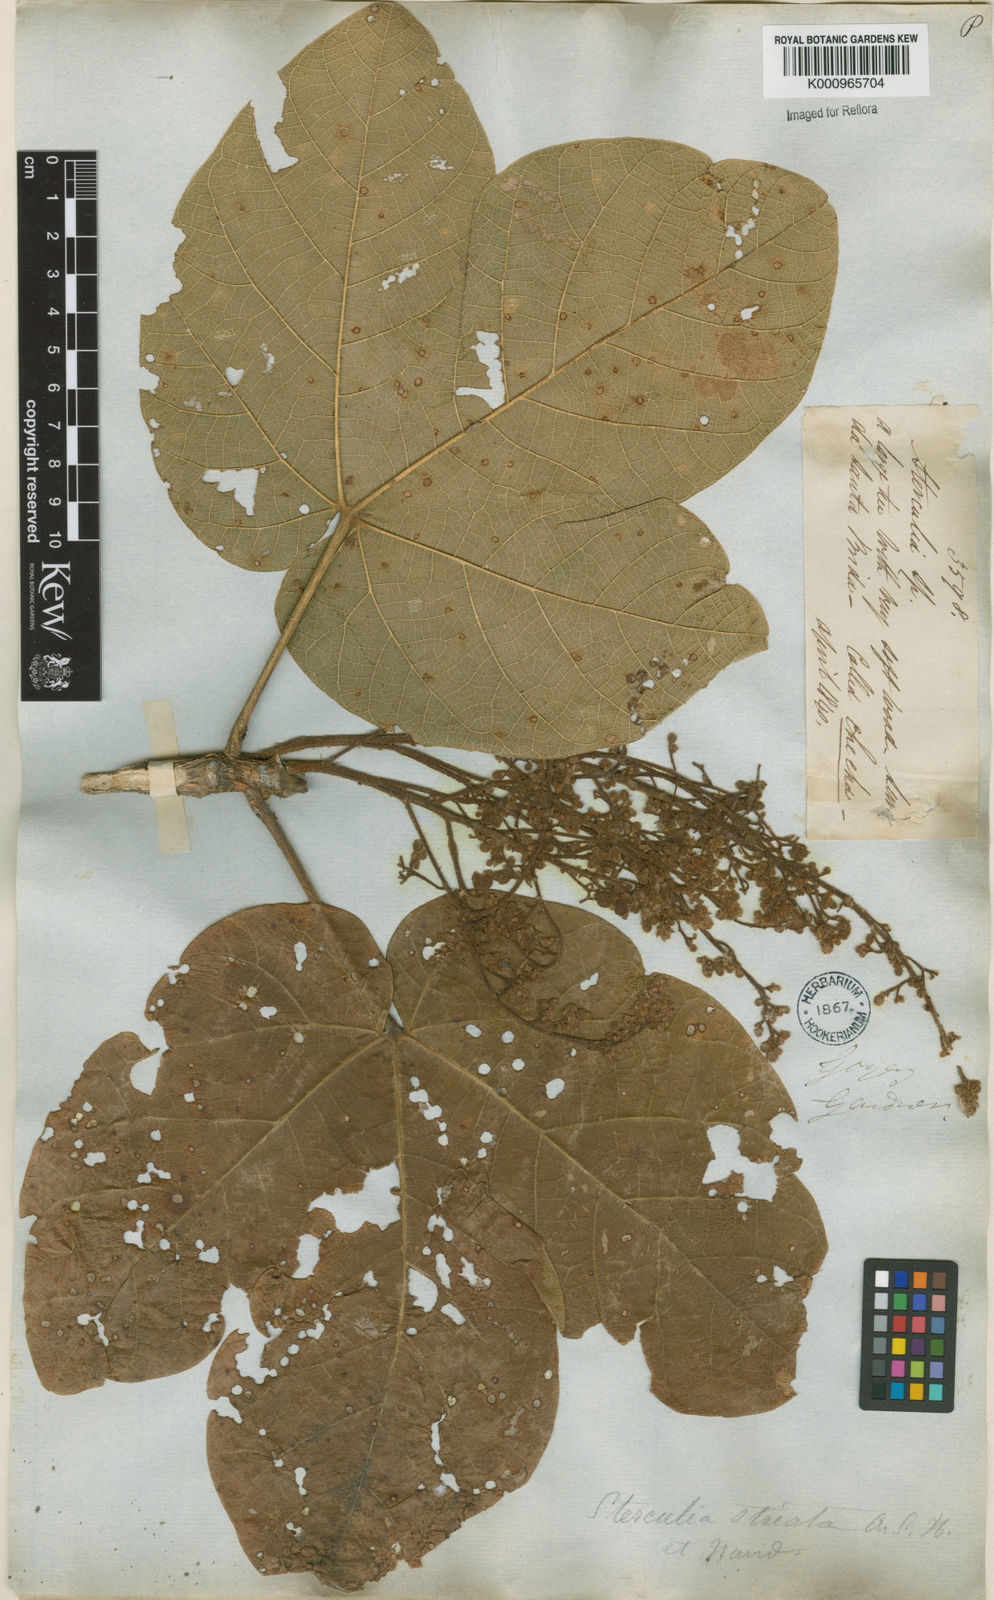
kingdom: Plantae
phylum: Tracheophyta
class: Magnoliopsida
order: Malvales
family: Malvaceae
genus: Sterculia
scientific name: Sterculia striata
